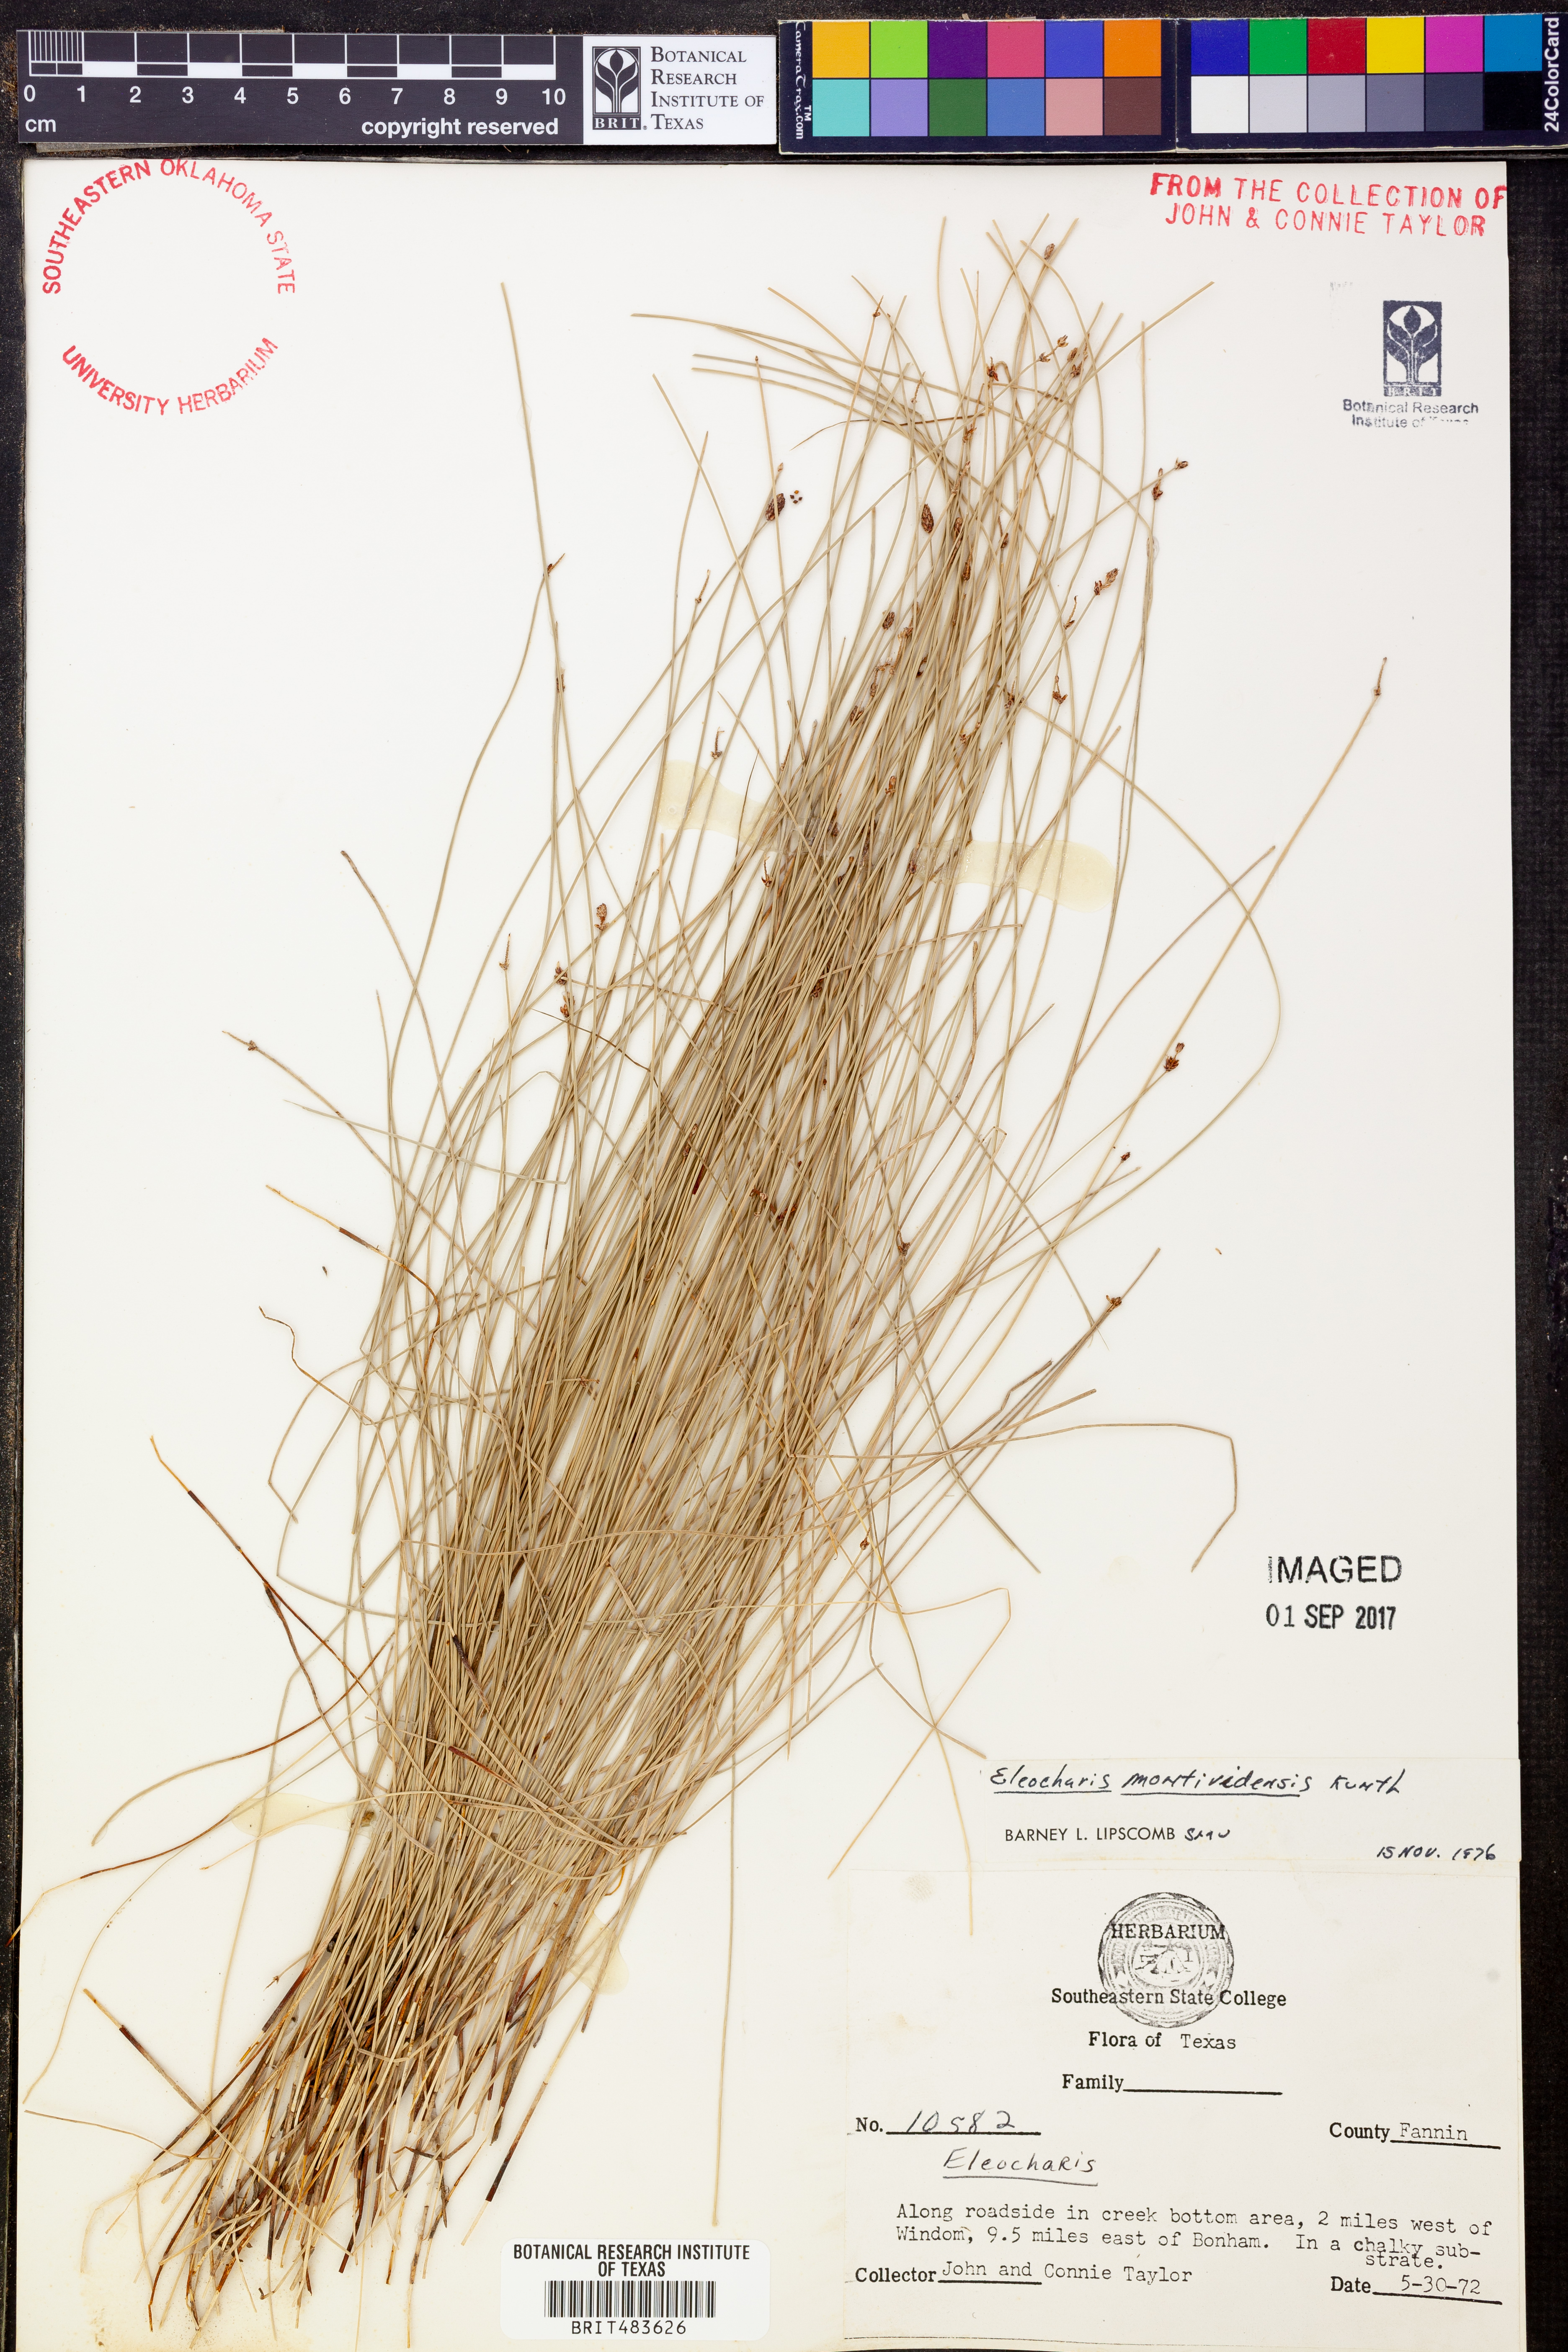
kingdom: Plantae
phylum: Tracheophyta
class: Liliopsida
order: Poales
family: Cyperaceae
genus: Eleocharis
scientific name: Eleocharis montevidensis
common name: Sand spike-rush
